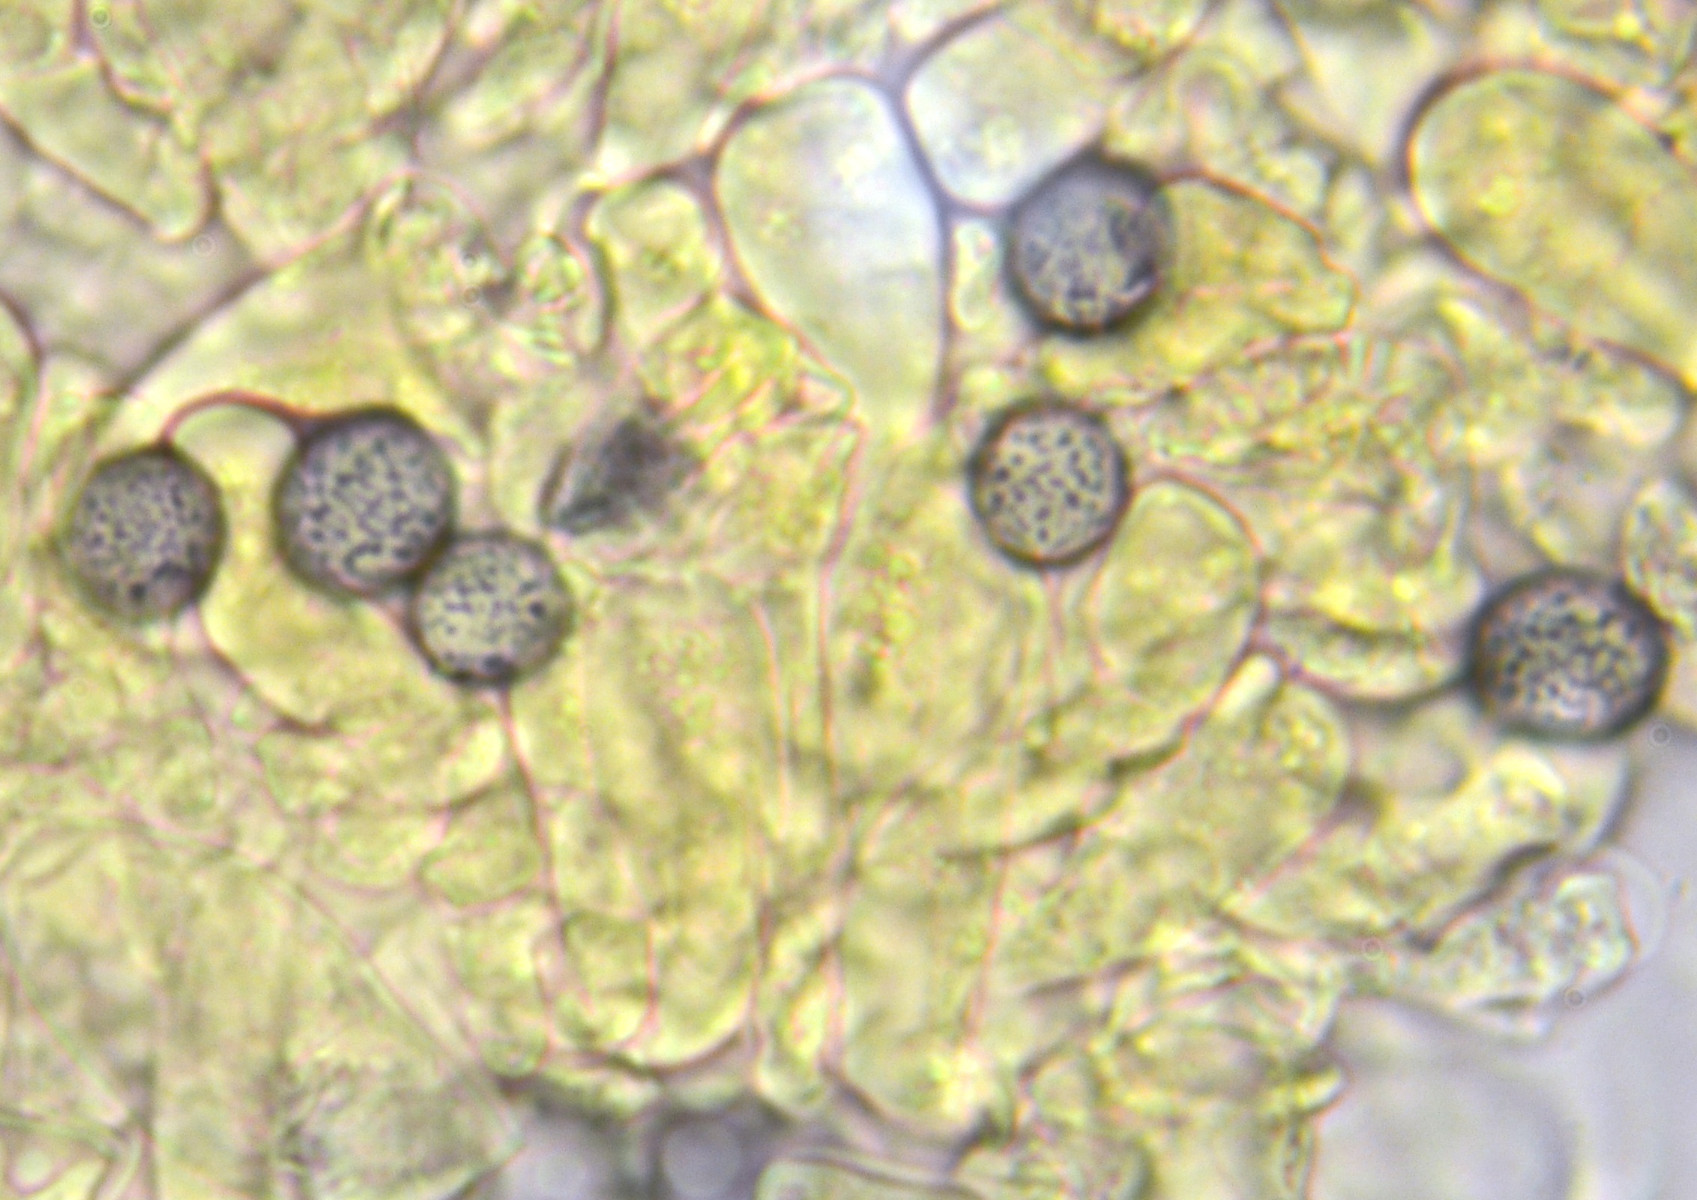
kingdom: Fungi
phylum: Basidiomycota
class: Agaricomycetes
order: Russulales
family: Russulaceae
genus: Russula
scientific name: Russula melliolens
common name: honning-skørhat
